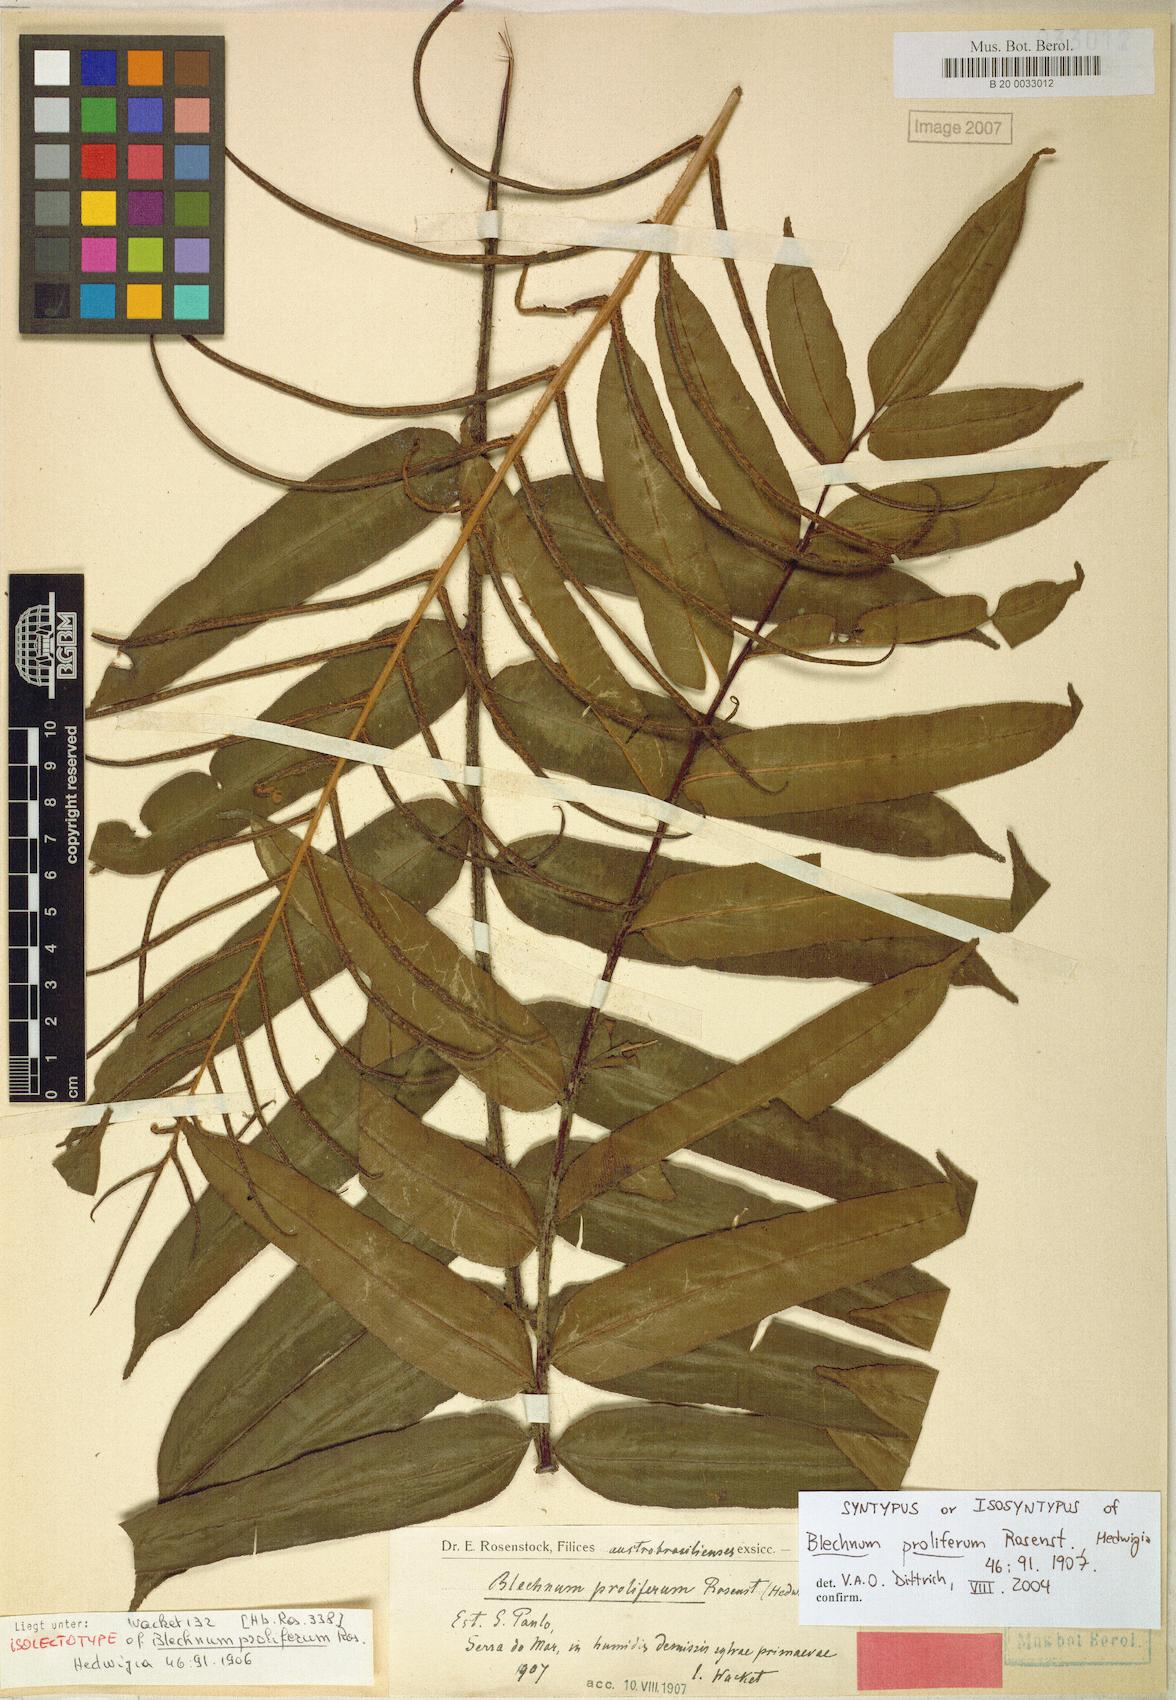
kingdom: Plantae
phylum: Tracheophyta
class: Polypodiopsida
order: Polypodiales
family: Blechnaceae
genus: Parablechnum
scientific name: Parablechnum proliferum
